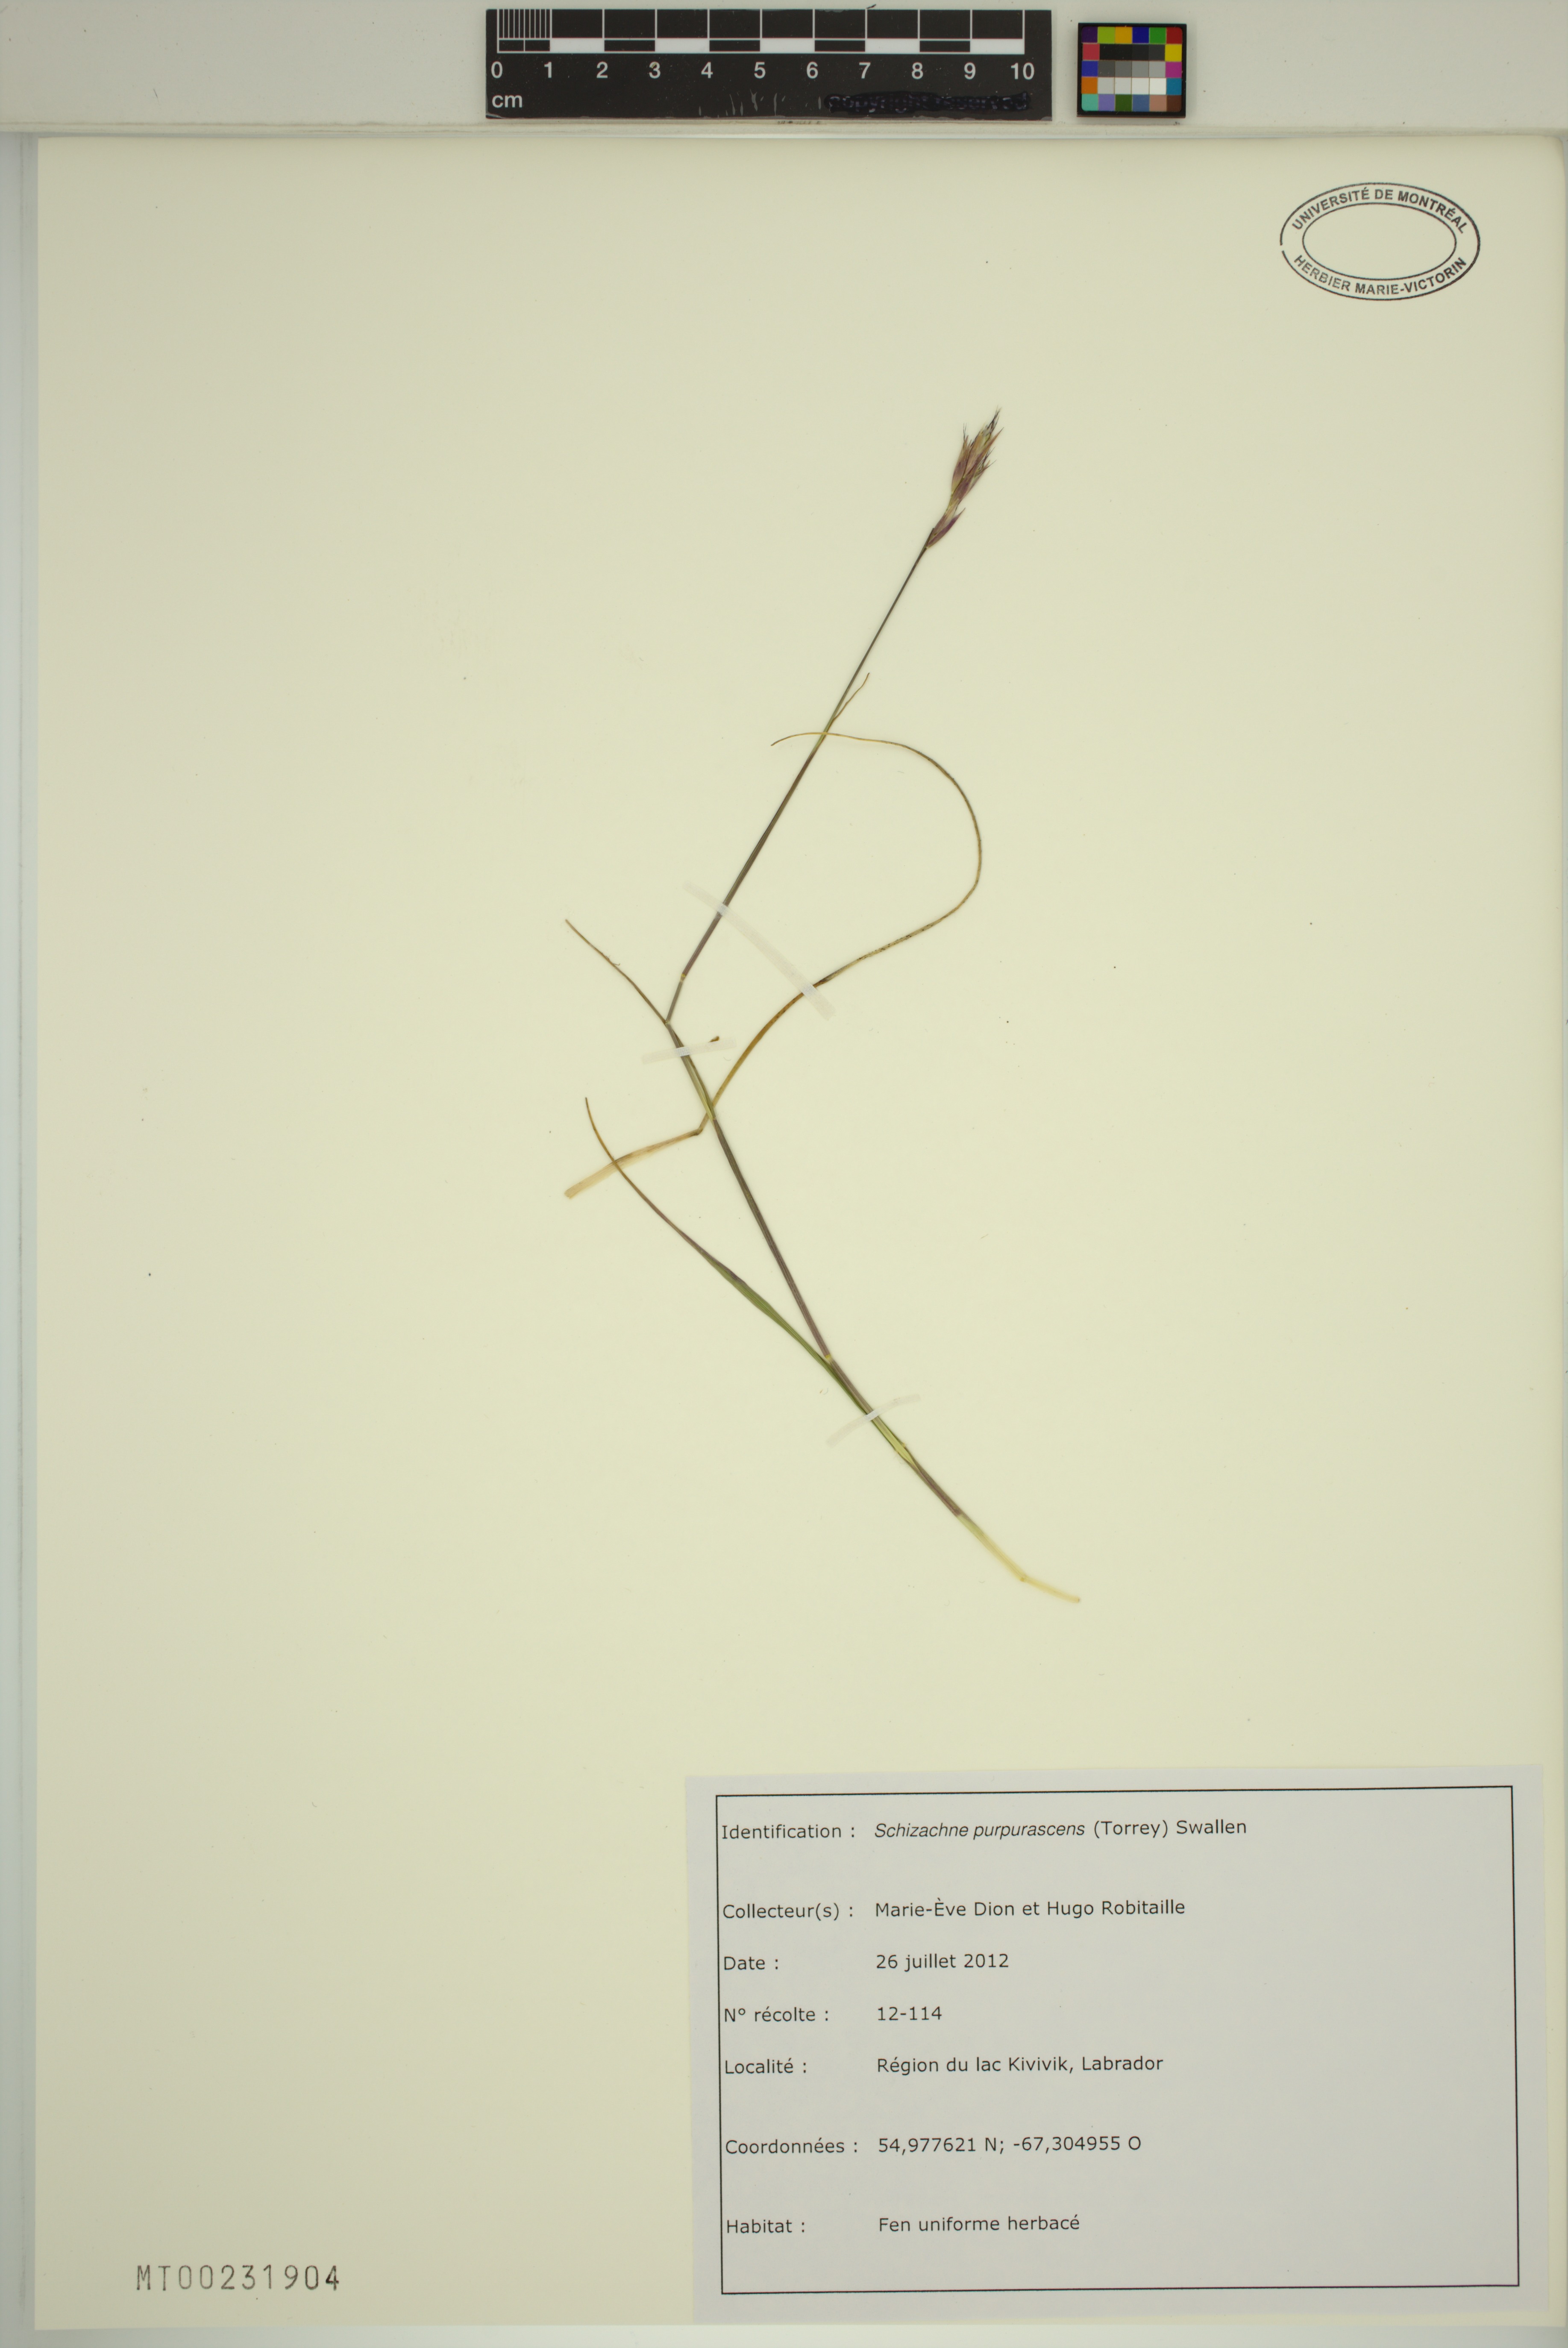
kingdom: Plantae
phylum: Tracheophyta
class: Liliopsida
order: Poales
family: Poaceae
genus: Schizachne
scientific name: Schizachne purpurascens
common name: False melic
